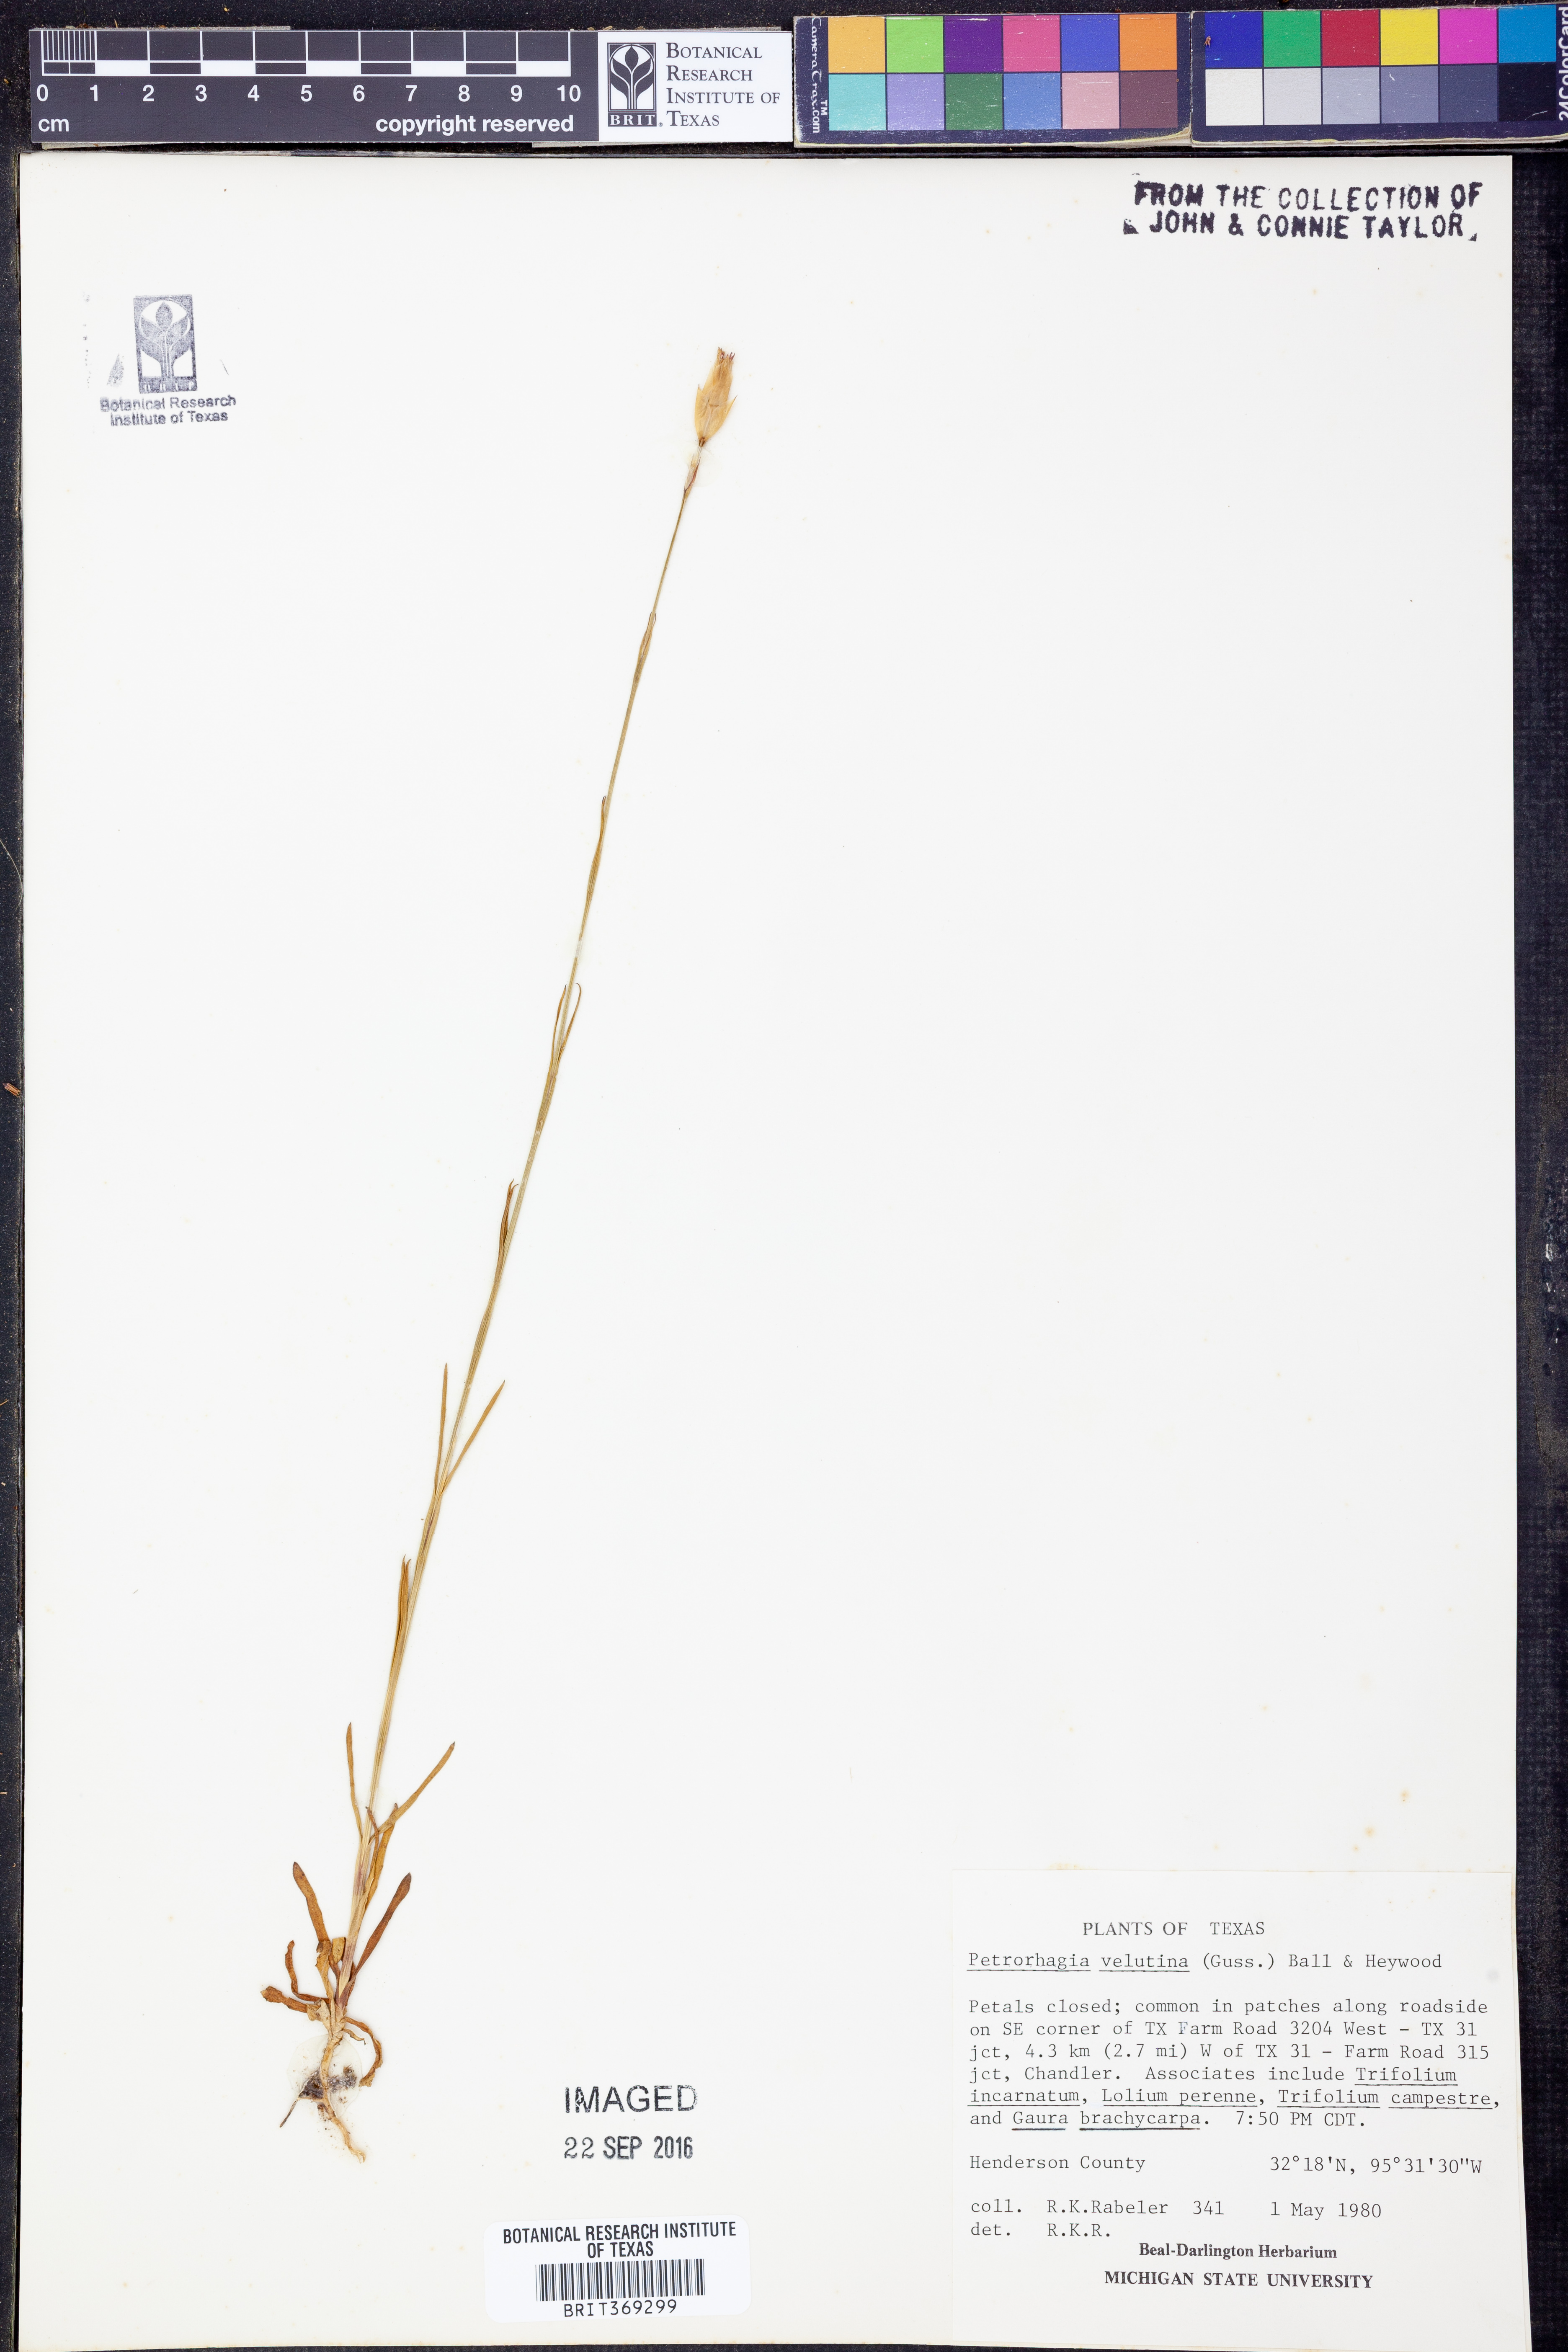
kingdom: Plantae
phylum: Tracheophyta
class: Magnoliopsida
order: Caryophyllales
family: Caryophyllaceae
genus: Petrorhagia
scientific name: Petrorhagia dubia
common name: Hairypink
